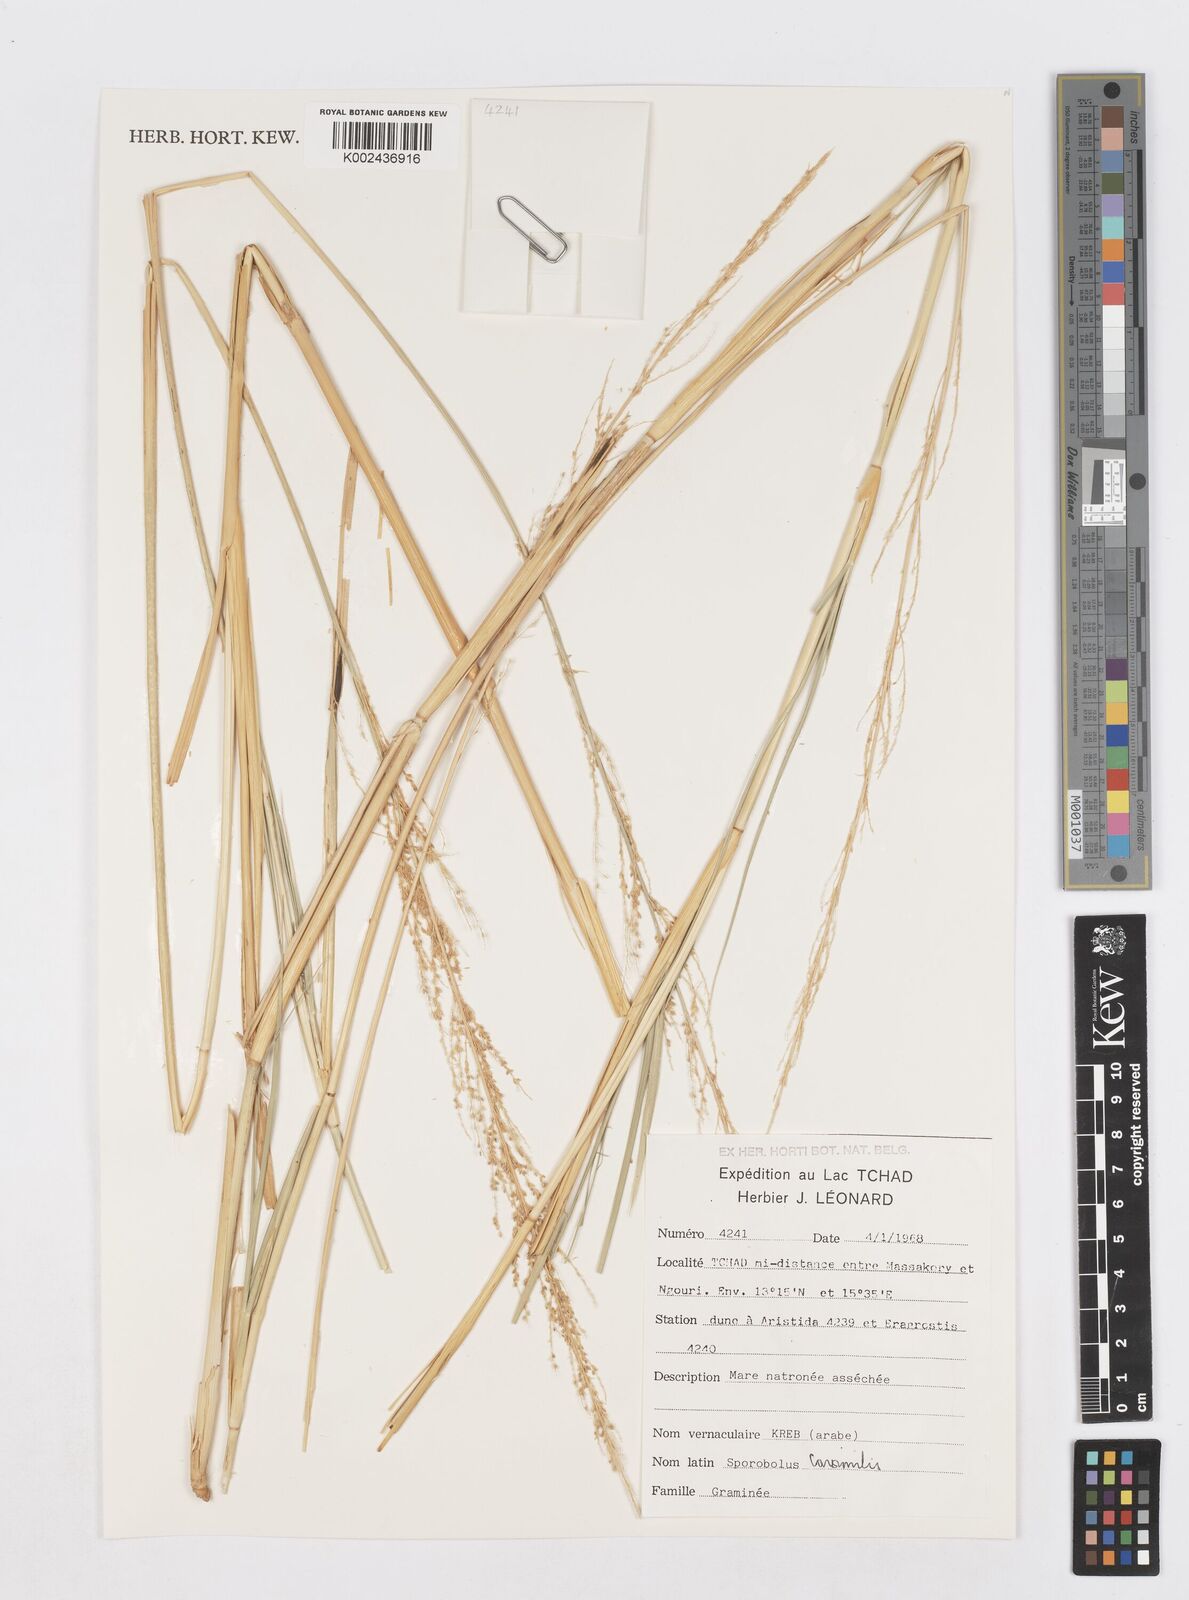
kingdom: Plantae
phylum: Tracheophyta
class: Liliopsida
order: Poales
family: Poaceae
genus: Sporobolus
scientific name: Sporobolus consimilis
